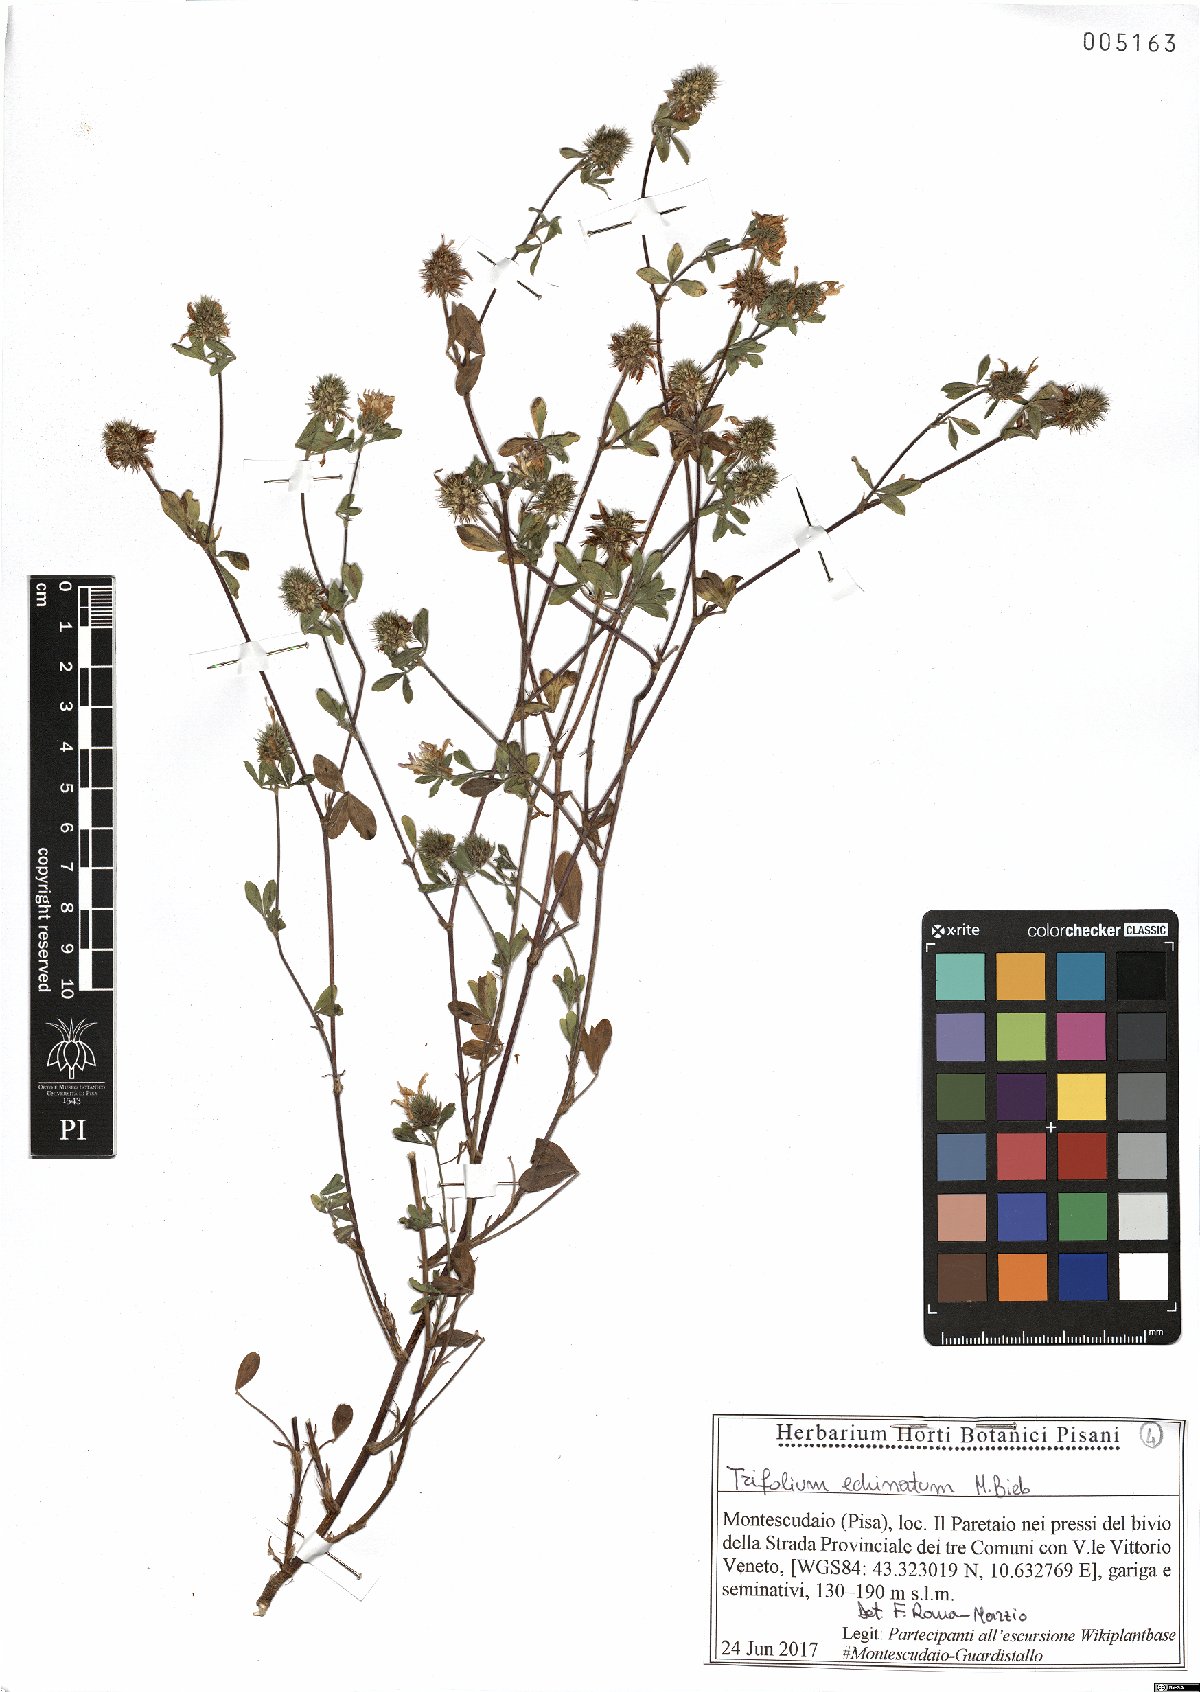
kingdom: Plantae
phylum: Tracheophyta
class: Magnoliopsida
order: Fabales
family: Fabaceae
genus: Trifolium
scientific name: Trifolium echinatum
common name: Hedgehog clover
